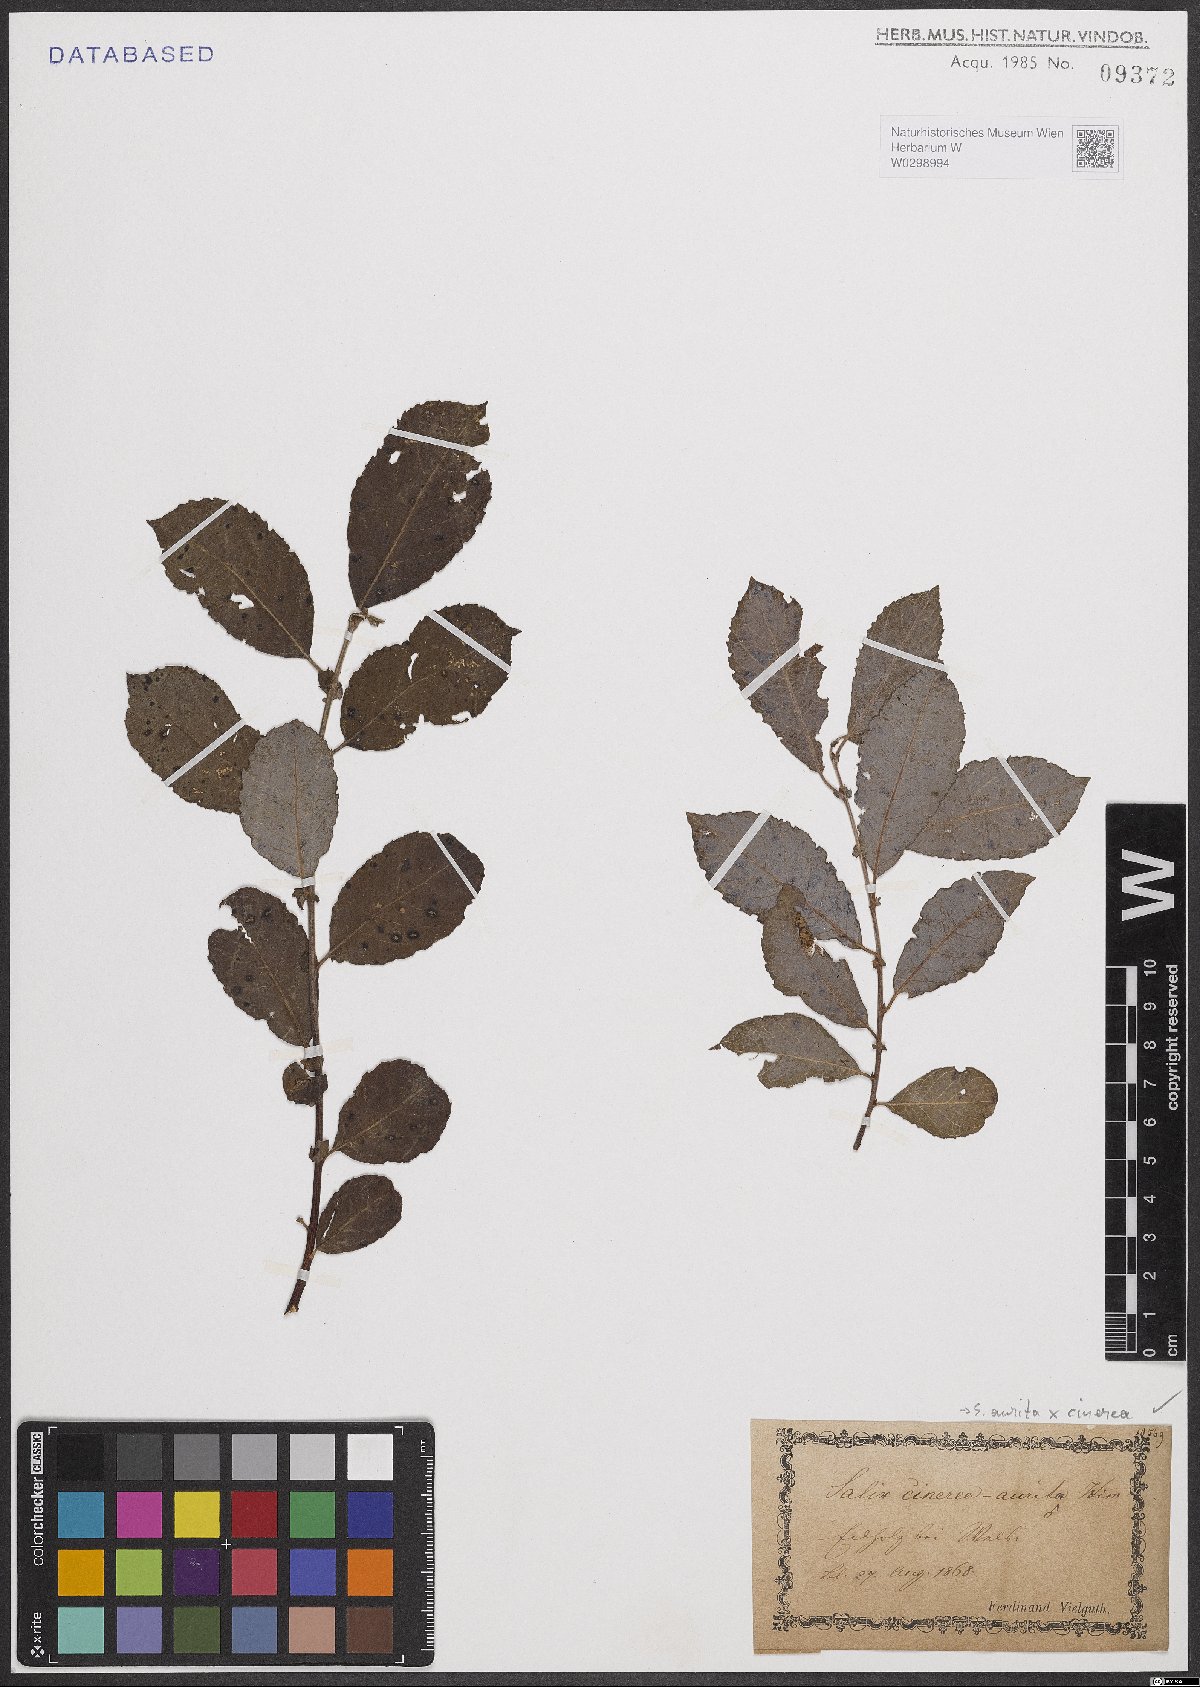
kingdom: Plantae
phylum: Tracheophyta
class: Magnoliopsida
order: Malpighiales
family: Salicaceae
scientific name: Salicaceae
